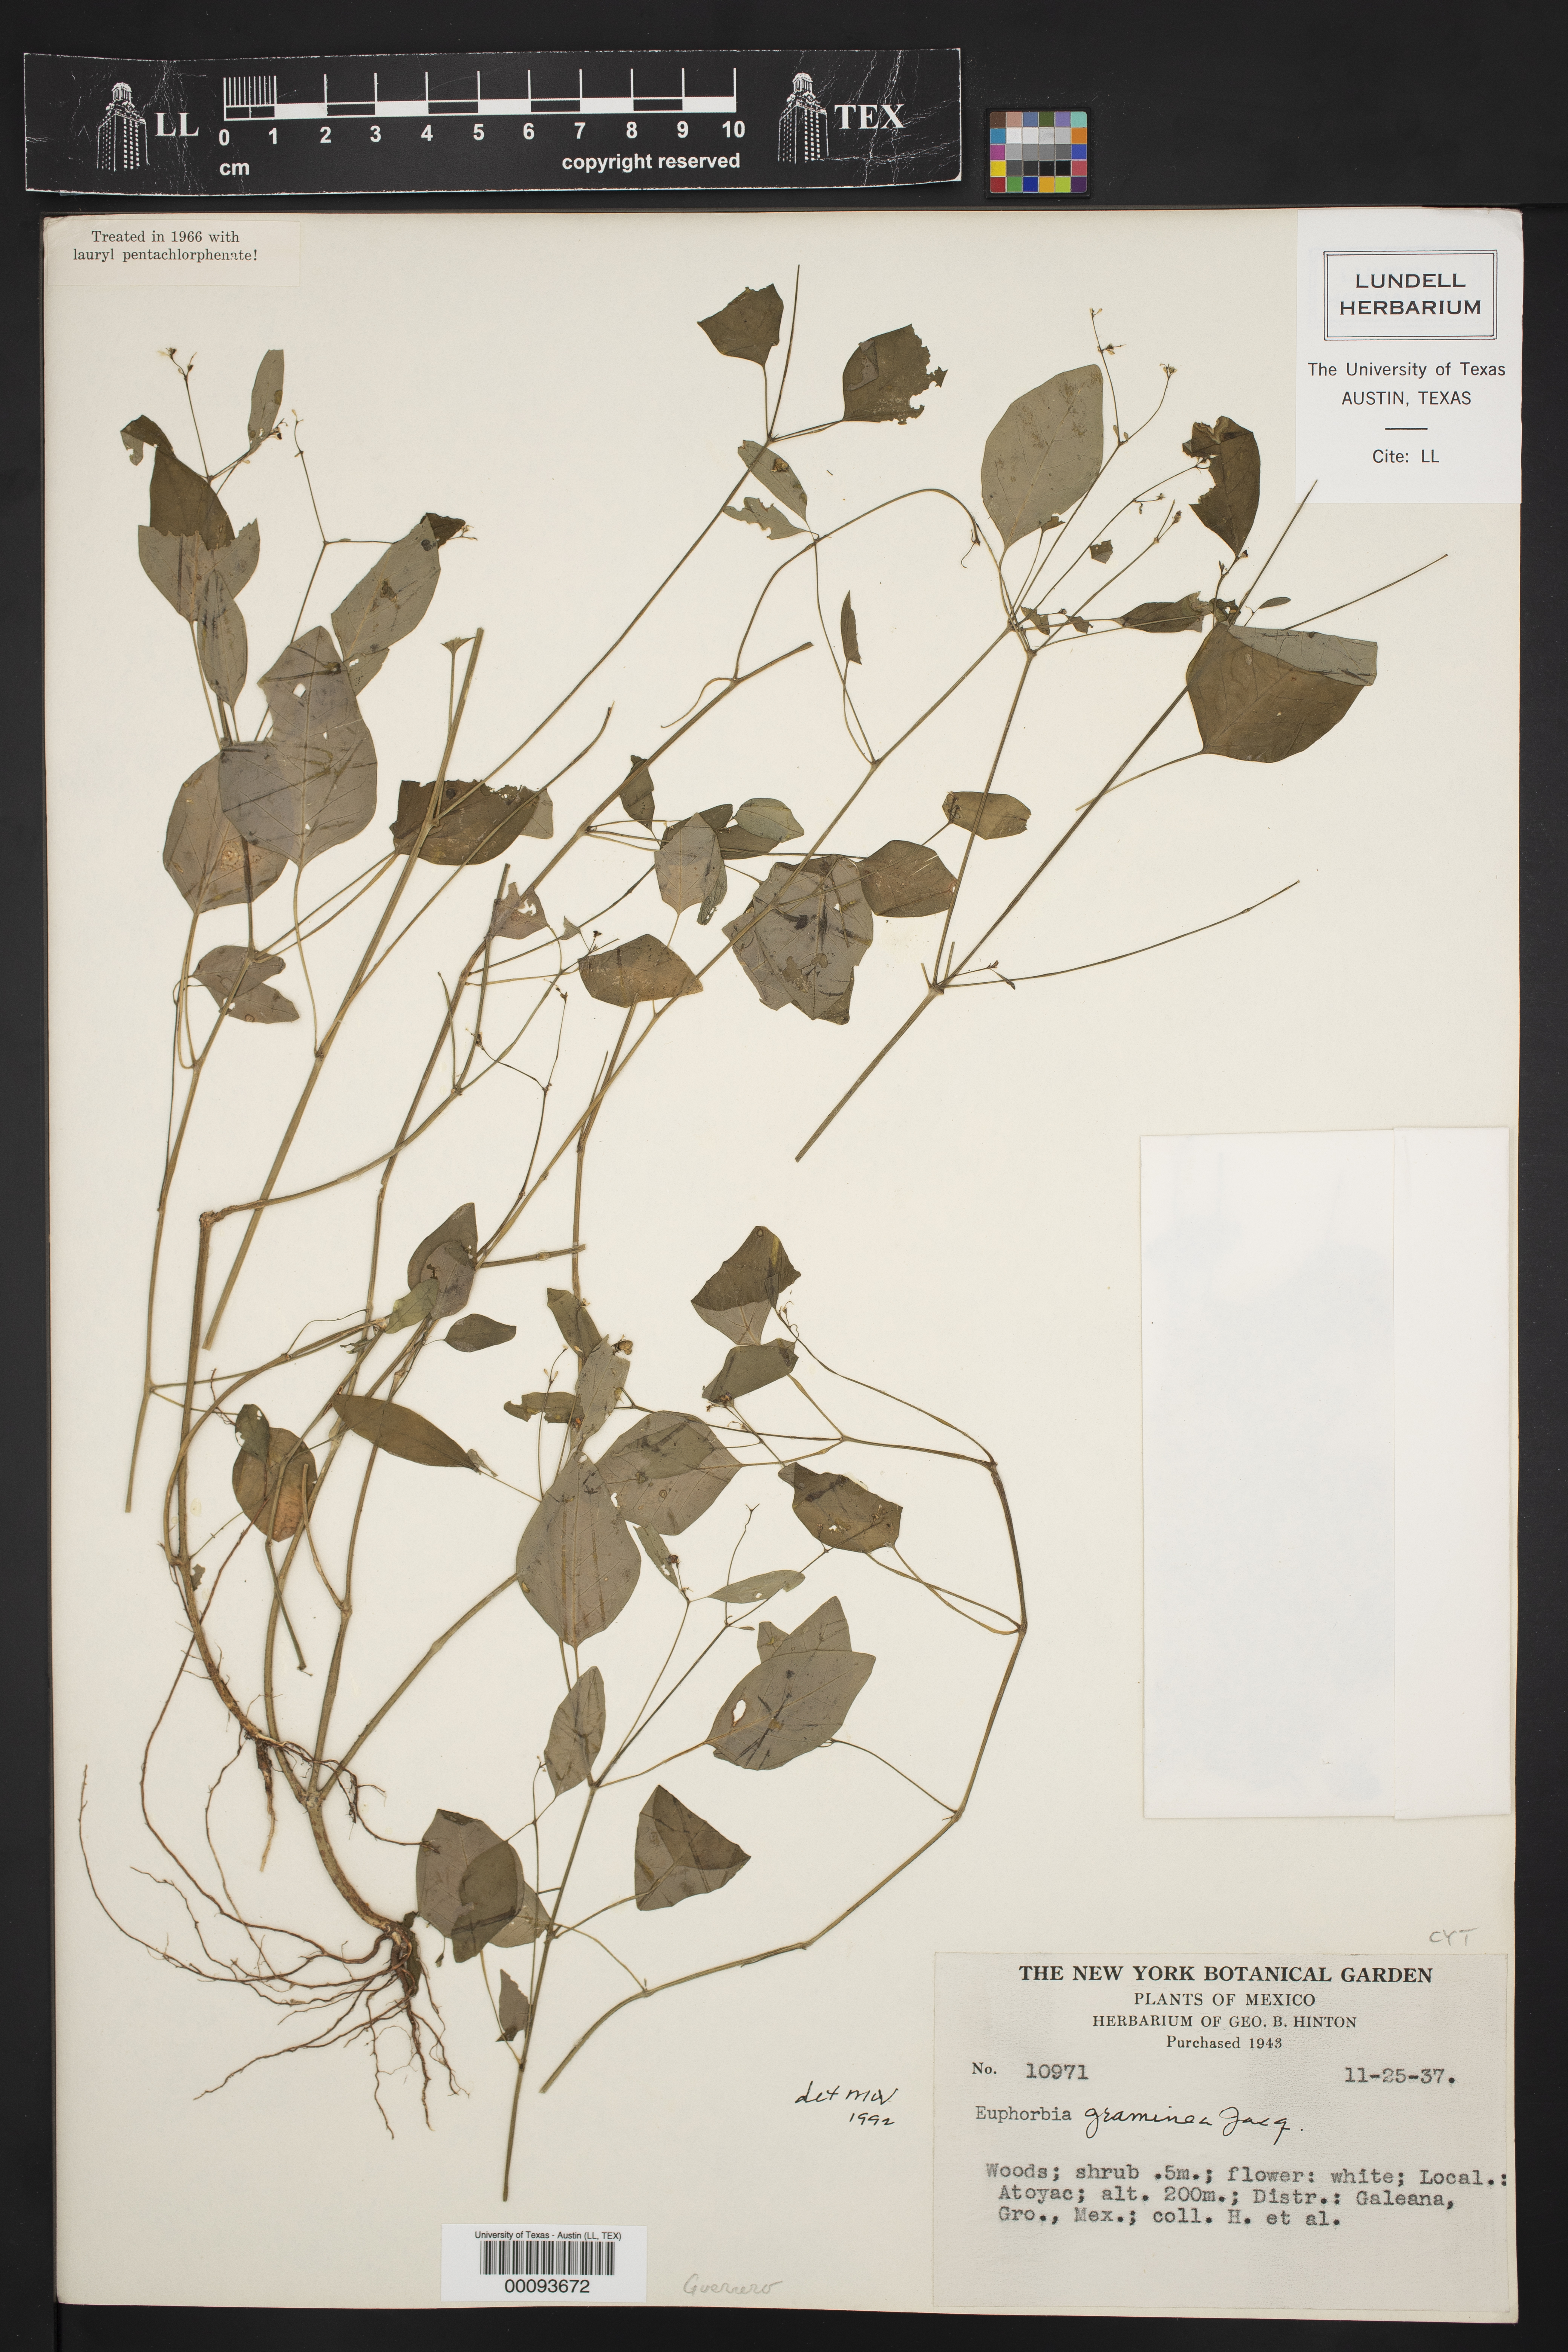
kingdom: Plantae
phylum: Tracheophyta
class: Magnoliopsida
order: Malpighiales
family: Euphorbiaceae
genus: Euphorbia
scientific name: Euphorbia graminea
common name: Grassleaf spurge
